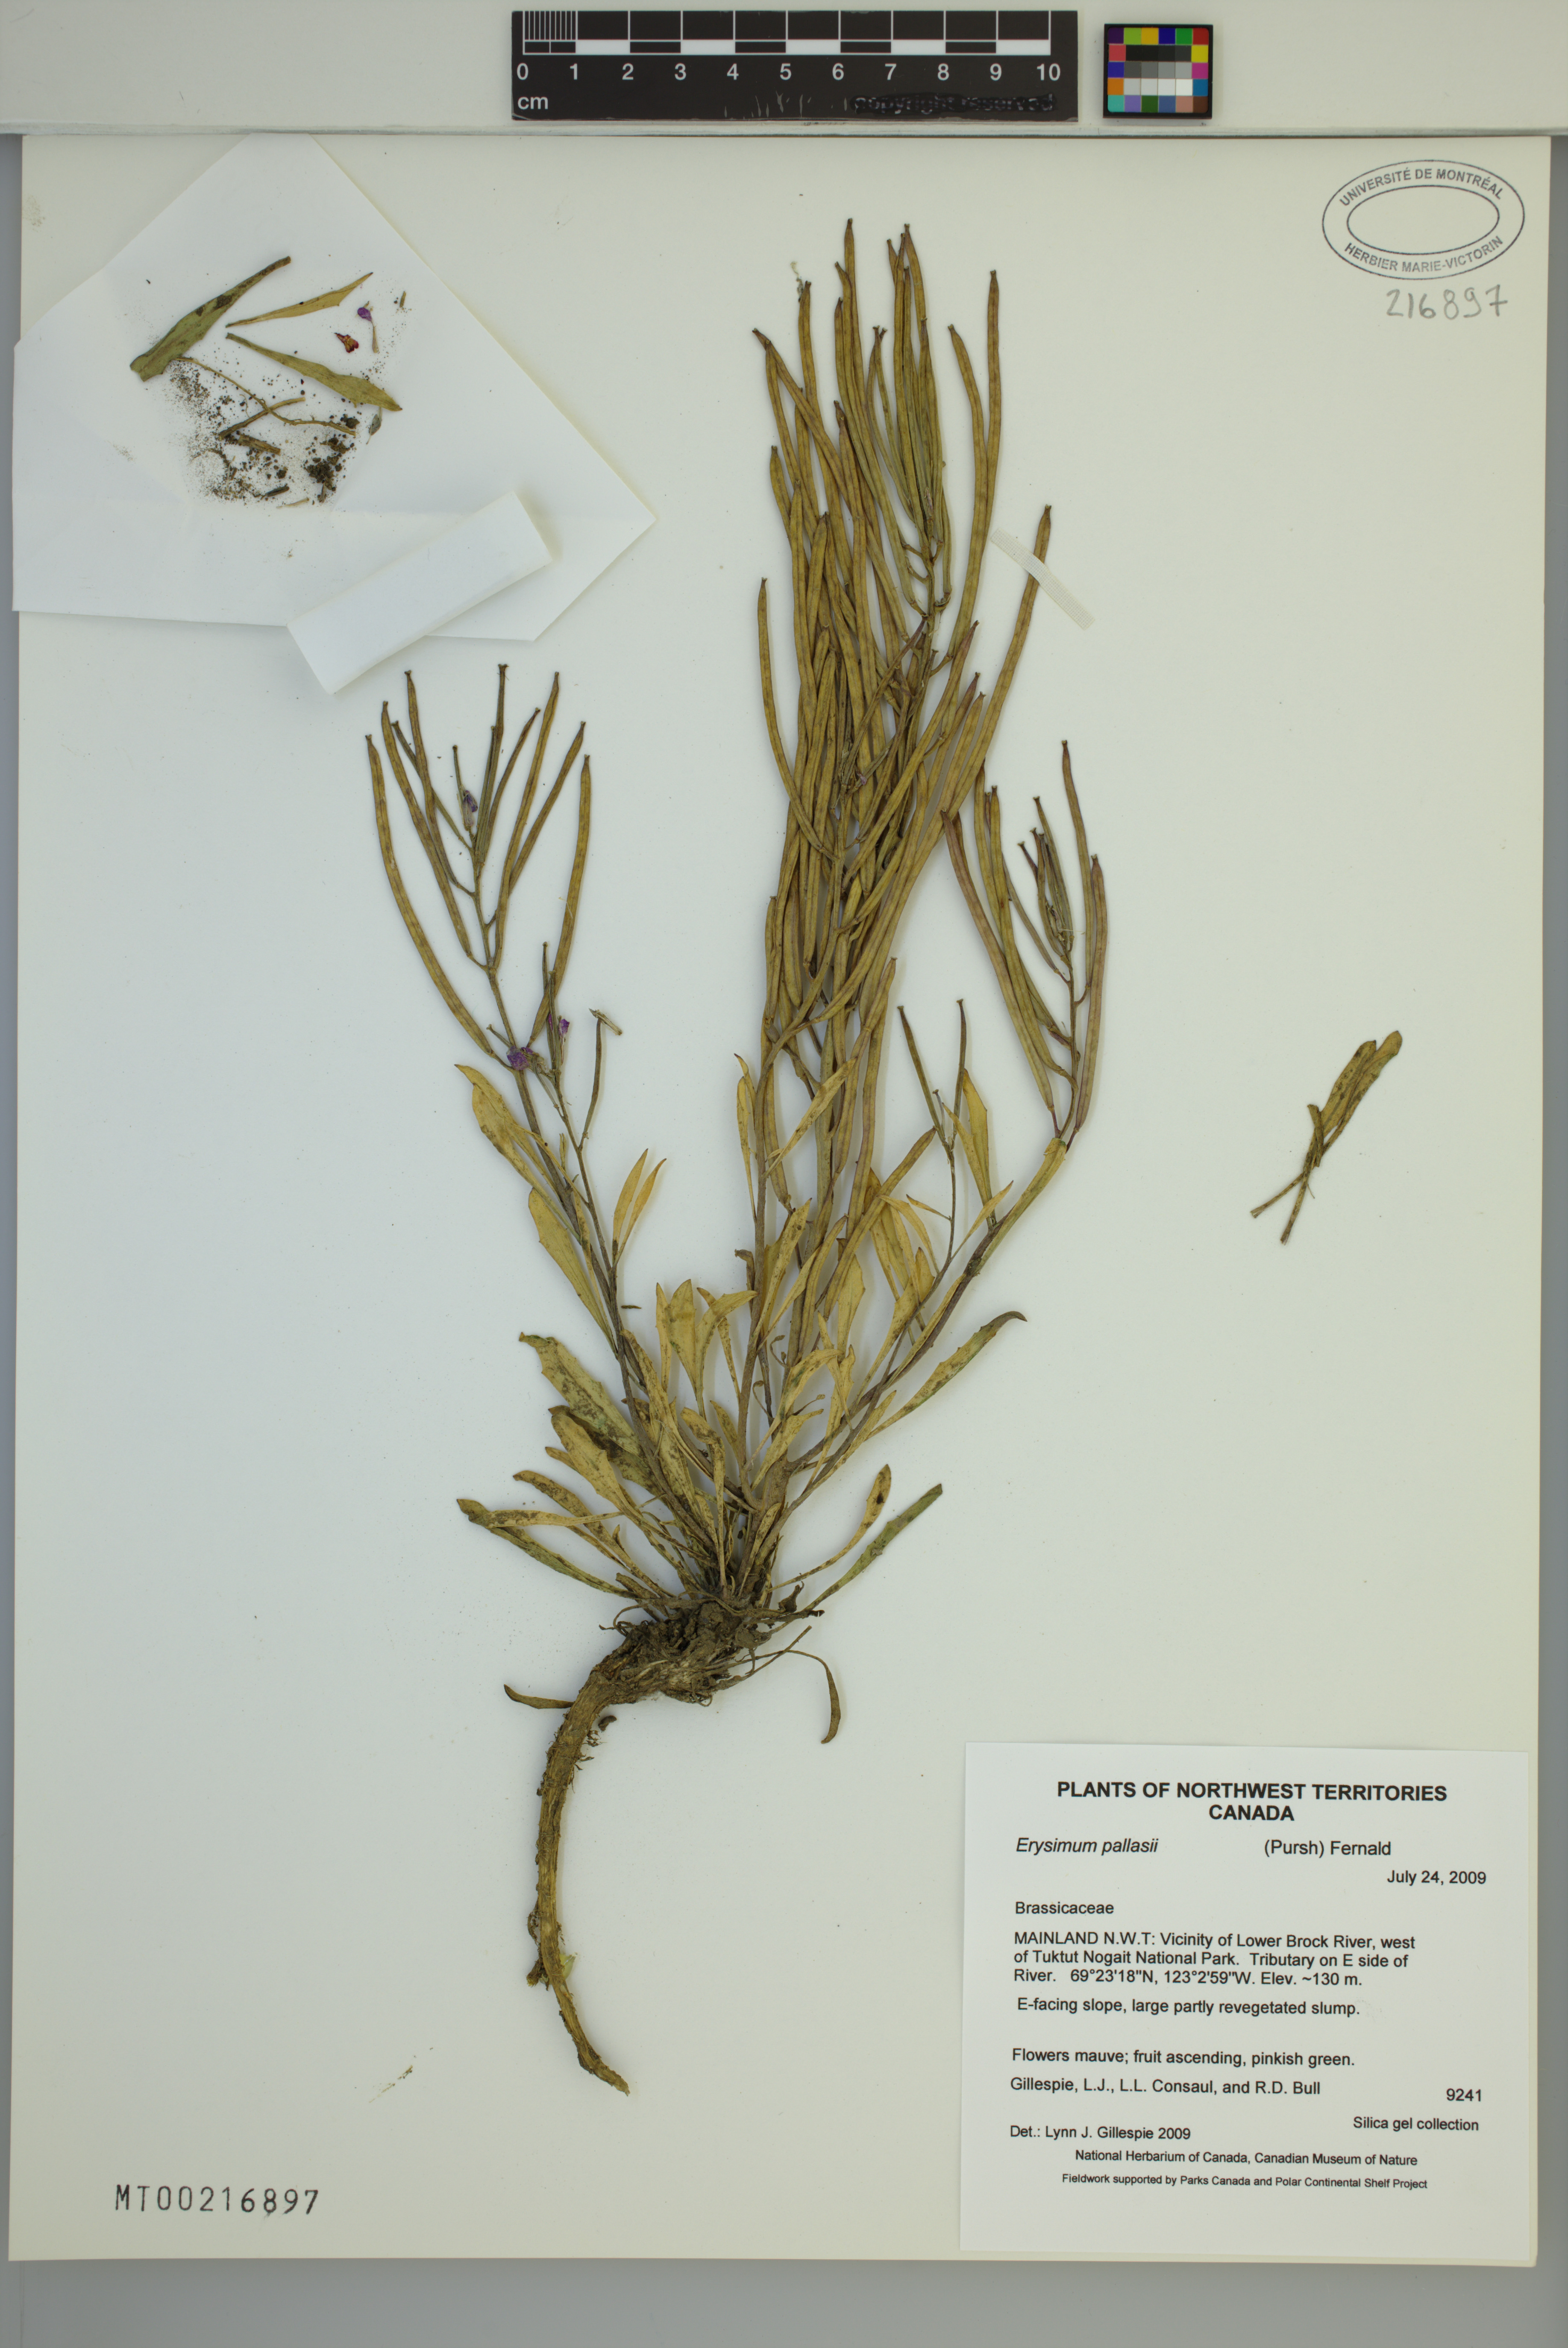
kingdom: Plantae
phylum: Tracheophyta
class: Magnoliopsida
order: Brassicales
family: Brassicaceae
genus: Erysimum
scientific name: Erysimum pallasii
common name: Pallas' wallflower
